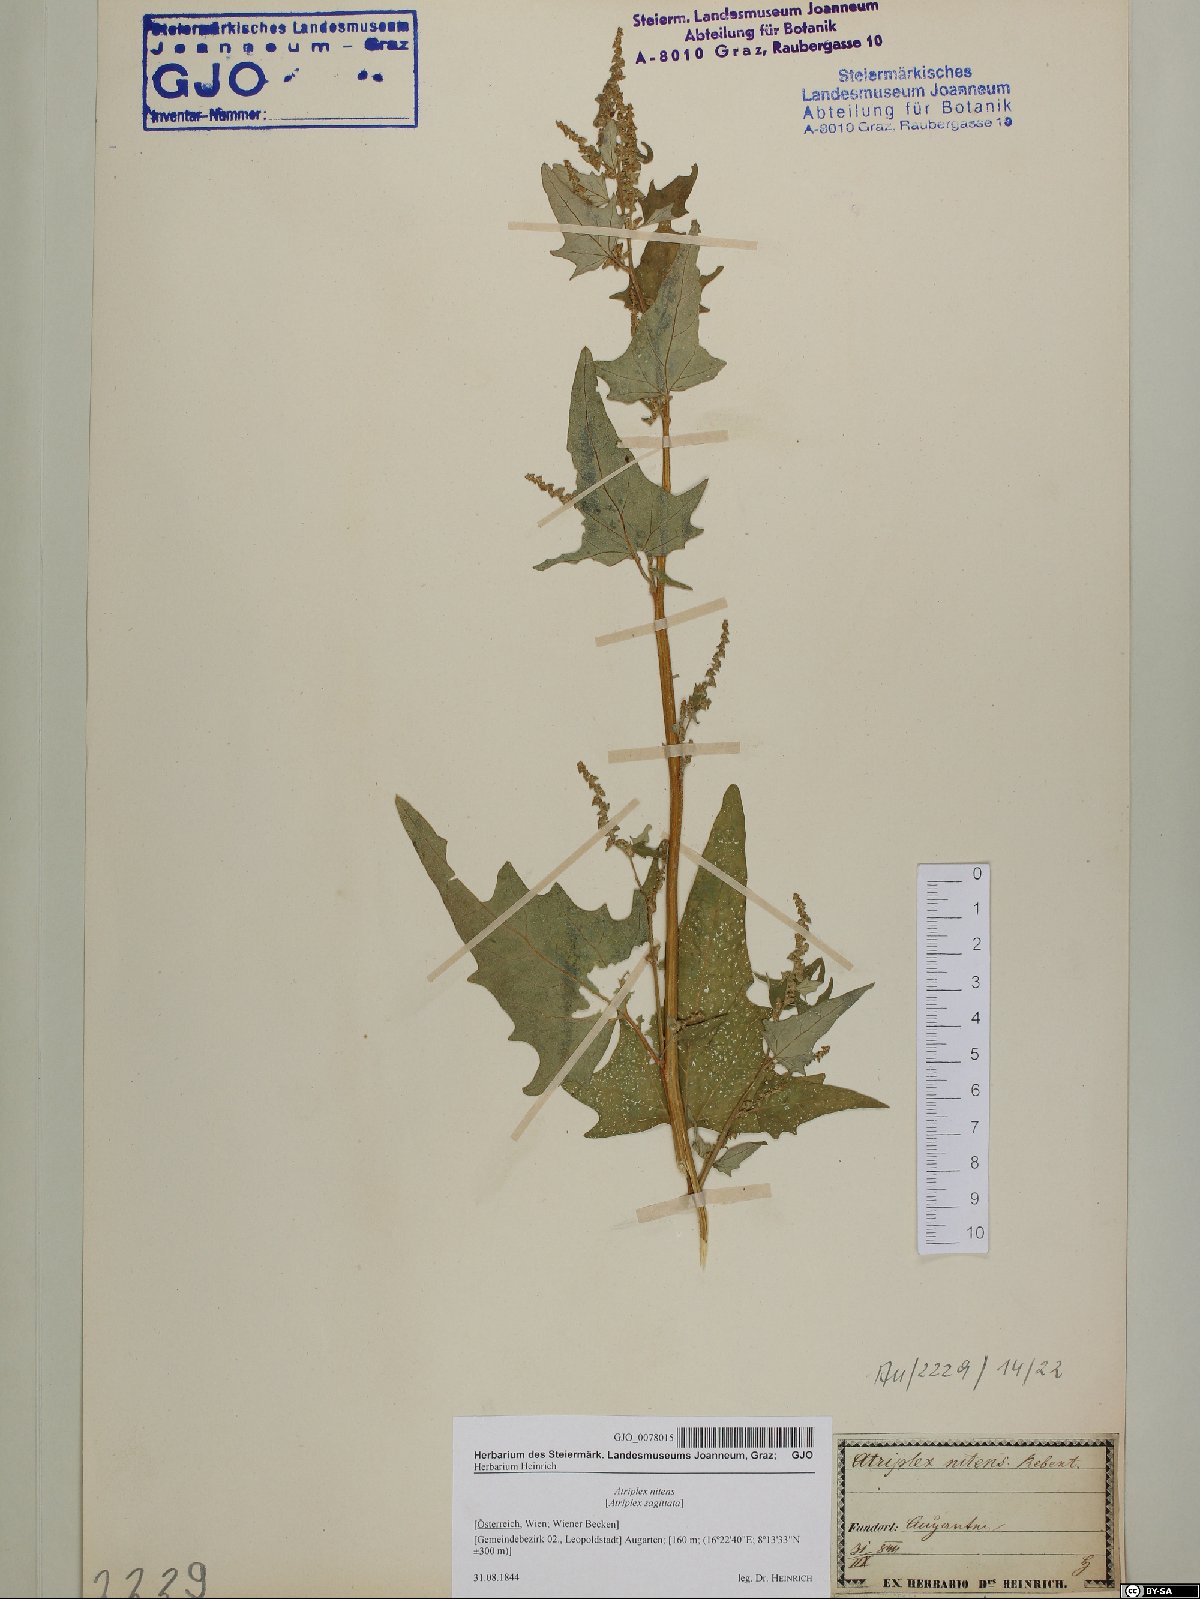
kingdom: Plantae
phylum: Tracheophyta
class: Magnoliopsida
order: Caryophyllales
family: Amaranthaceae
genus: Atriplex
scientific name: Atriplex sagittata
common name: Purple orache
